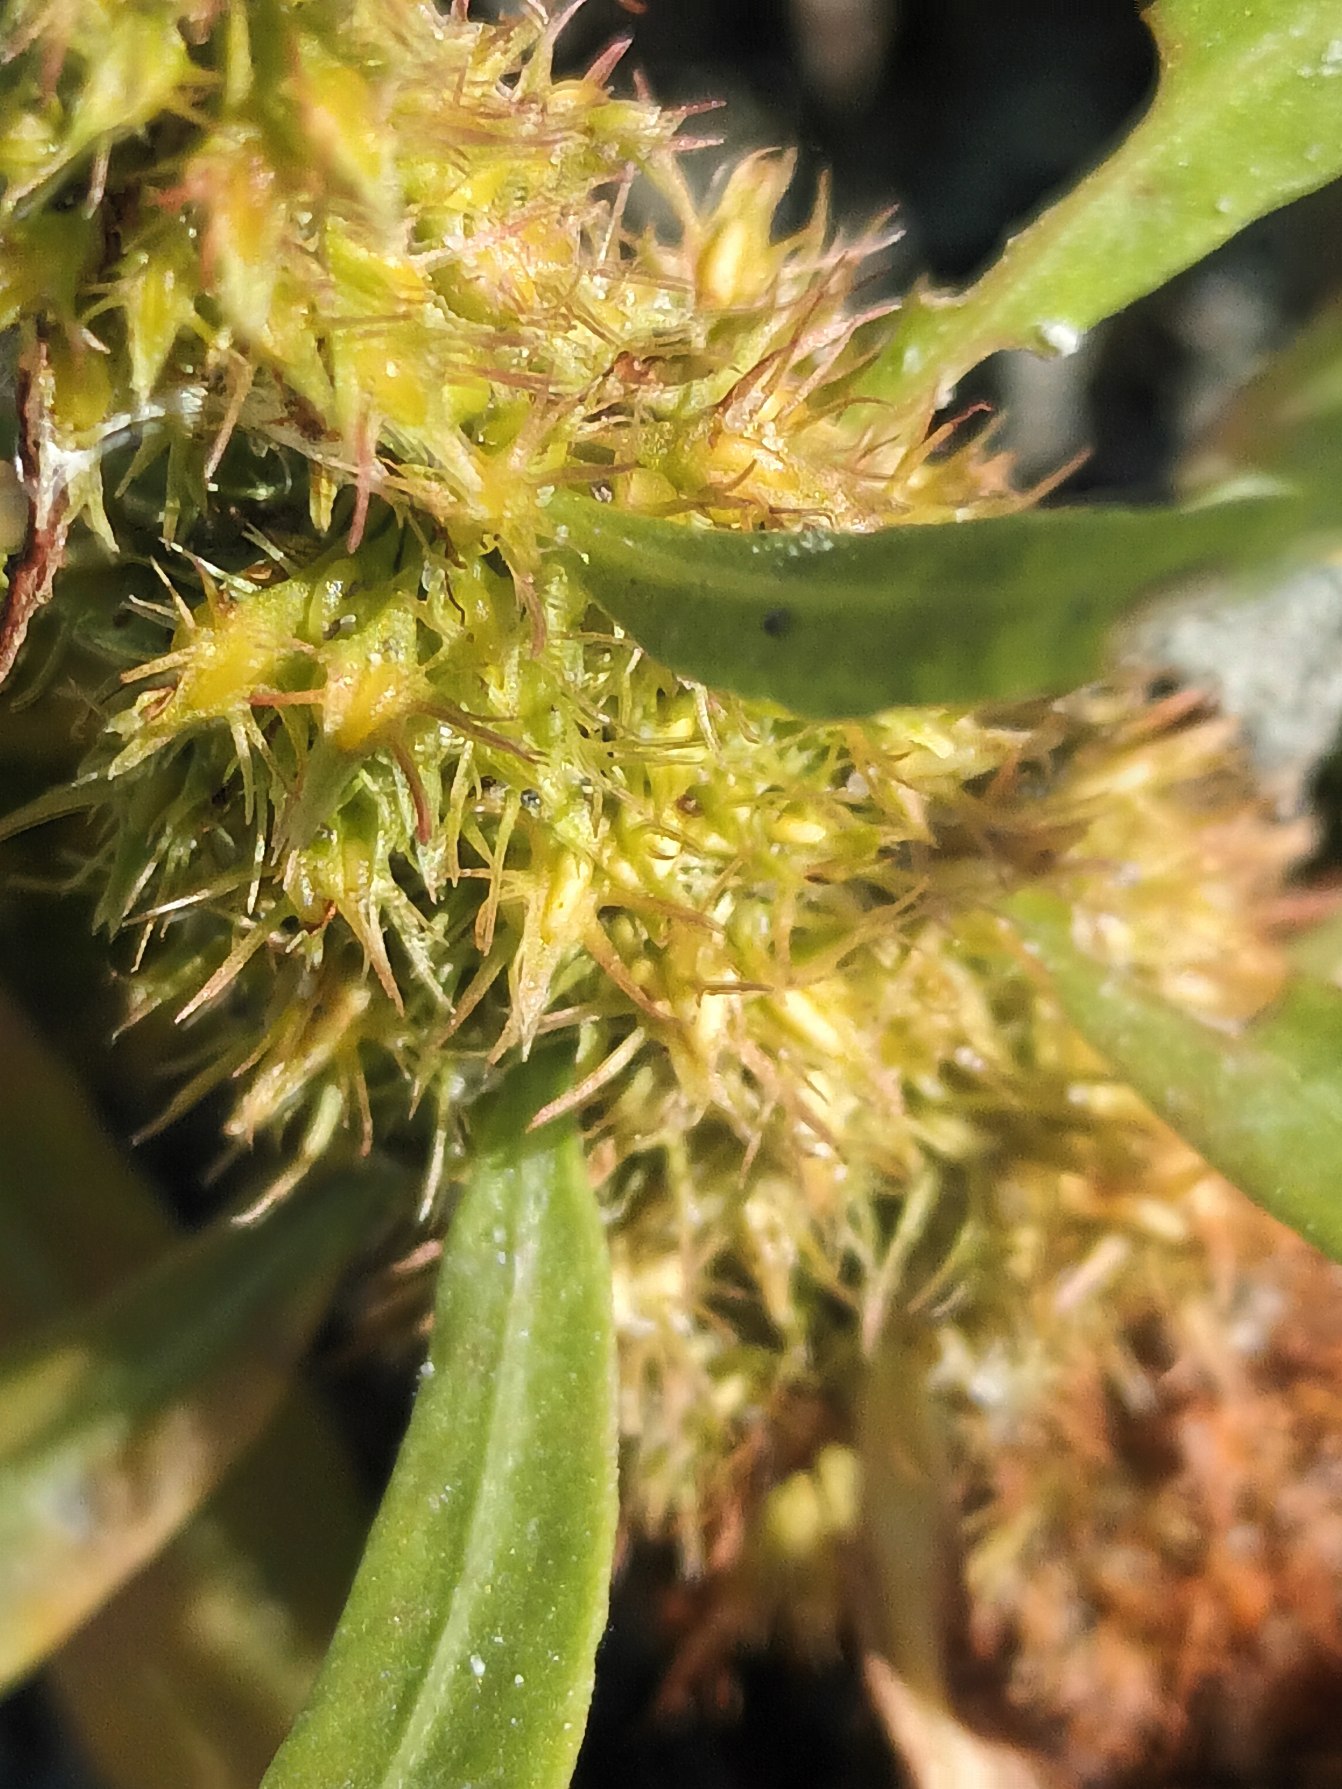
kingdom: Plantae
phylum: Tracheophyta
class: Magnoliopsida
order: Caryophyllales
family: Polygonaceae
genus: Rumex
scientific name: Rumex maritimus
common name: Strand-skræppe
